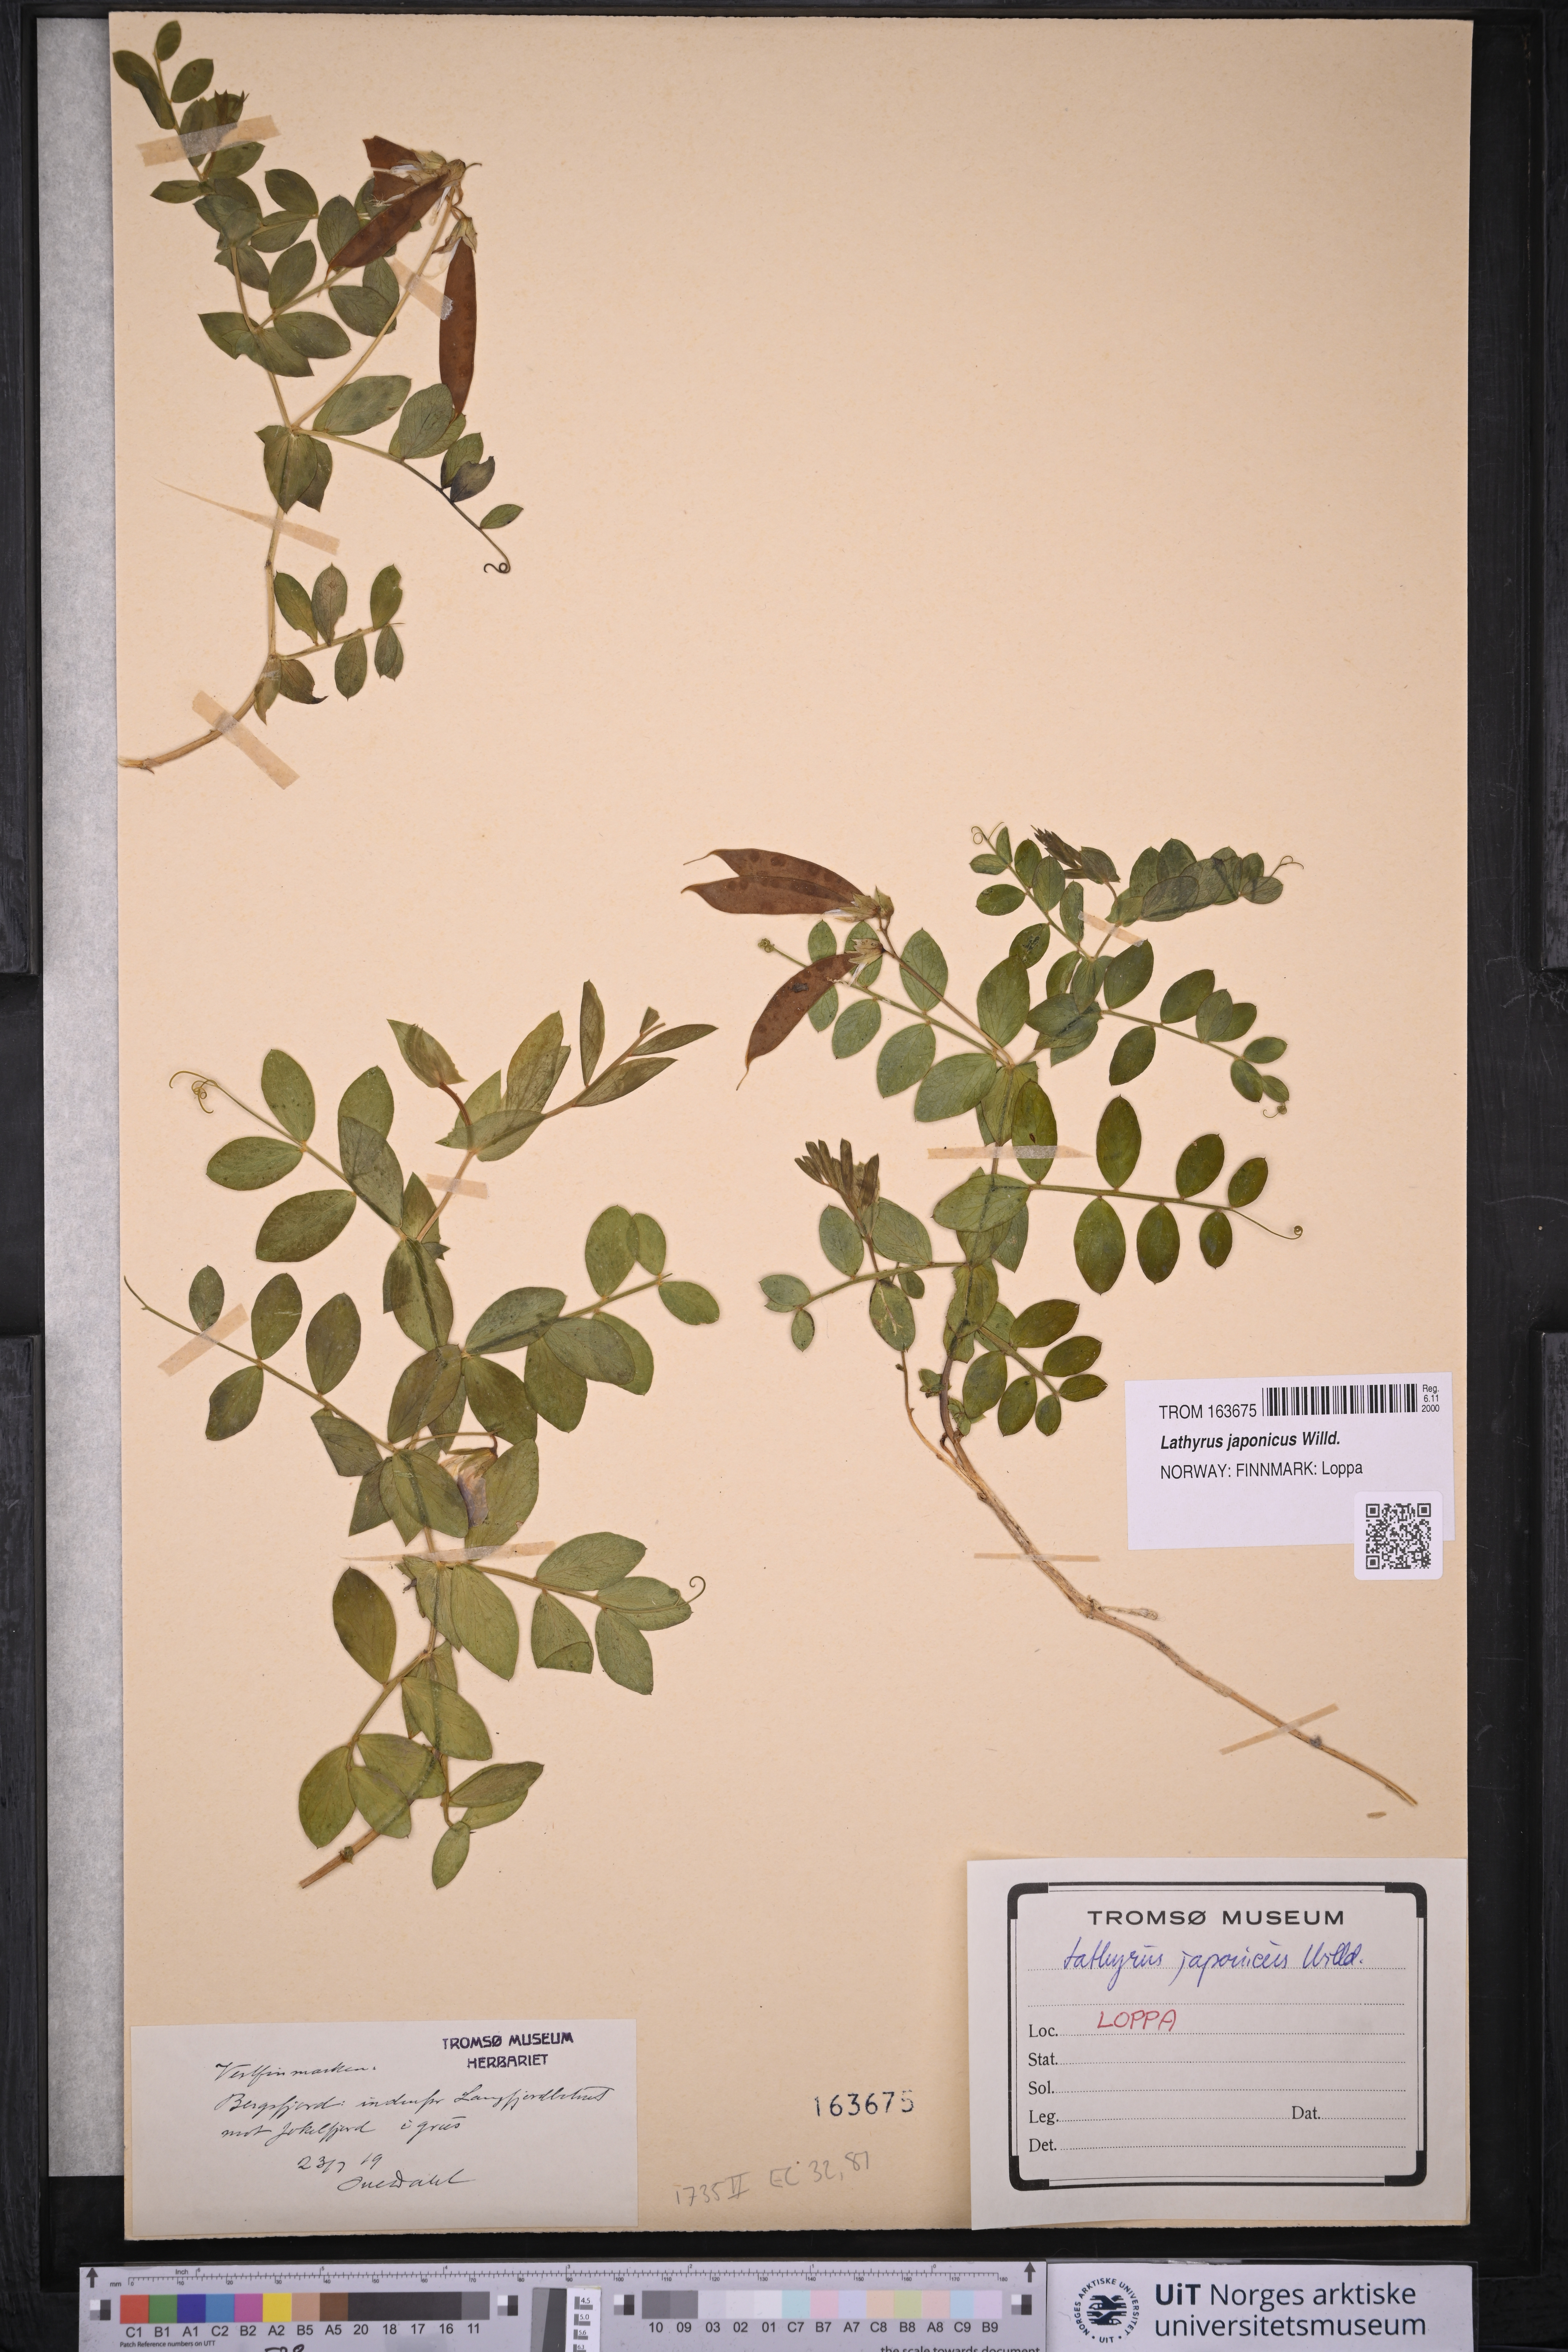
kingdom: Plantae
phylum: Tracheophyta
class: Magnoliopsida
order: Fabales
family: Fabaceae
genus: Lathyrus
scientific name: Lathyrus japonicus
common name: Sea pea
